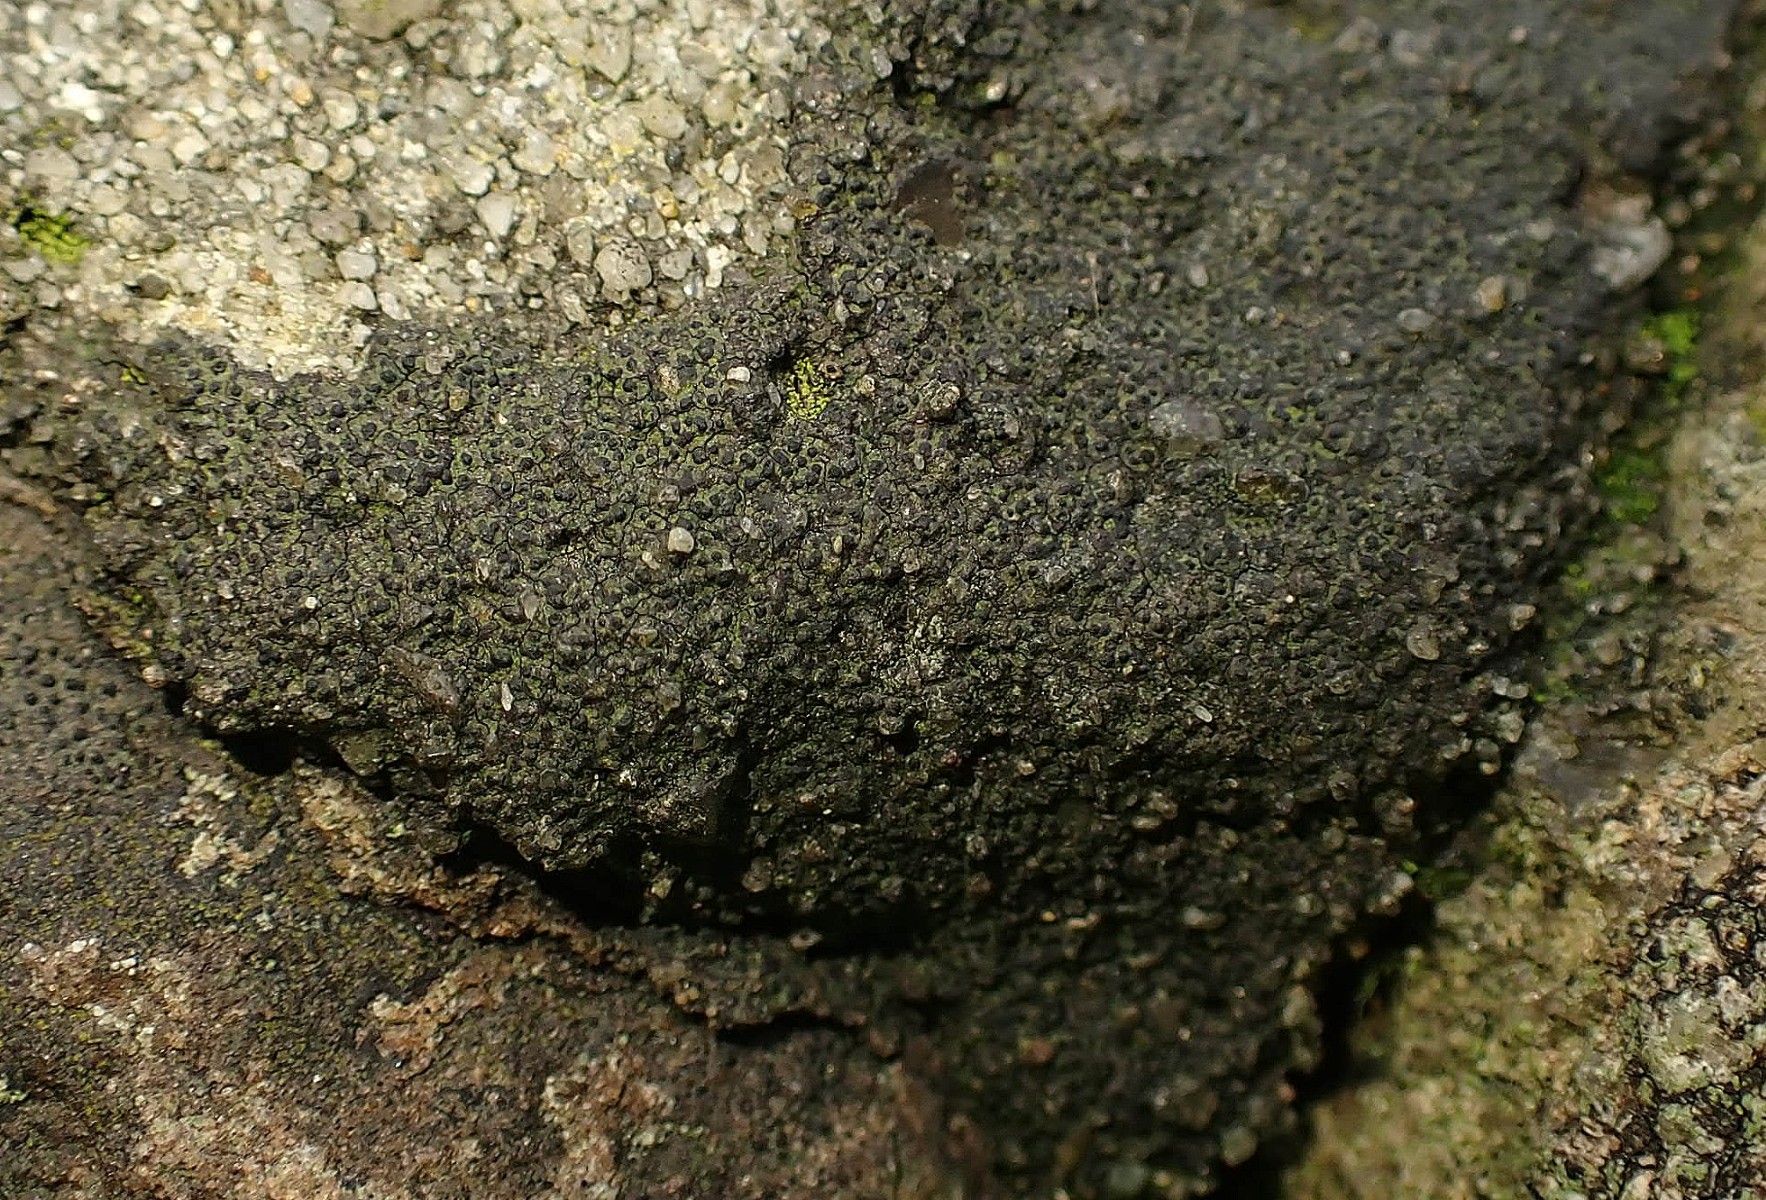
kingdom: Fungi
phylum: Ascomycota
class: Eurotiomycetes
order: Verrucariales
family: Verrucariaceae
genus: Verrucaria
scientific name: Verrucaria nigrescens
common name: sortbrun vortelav
